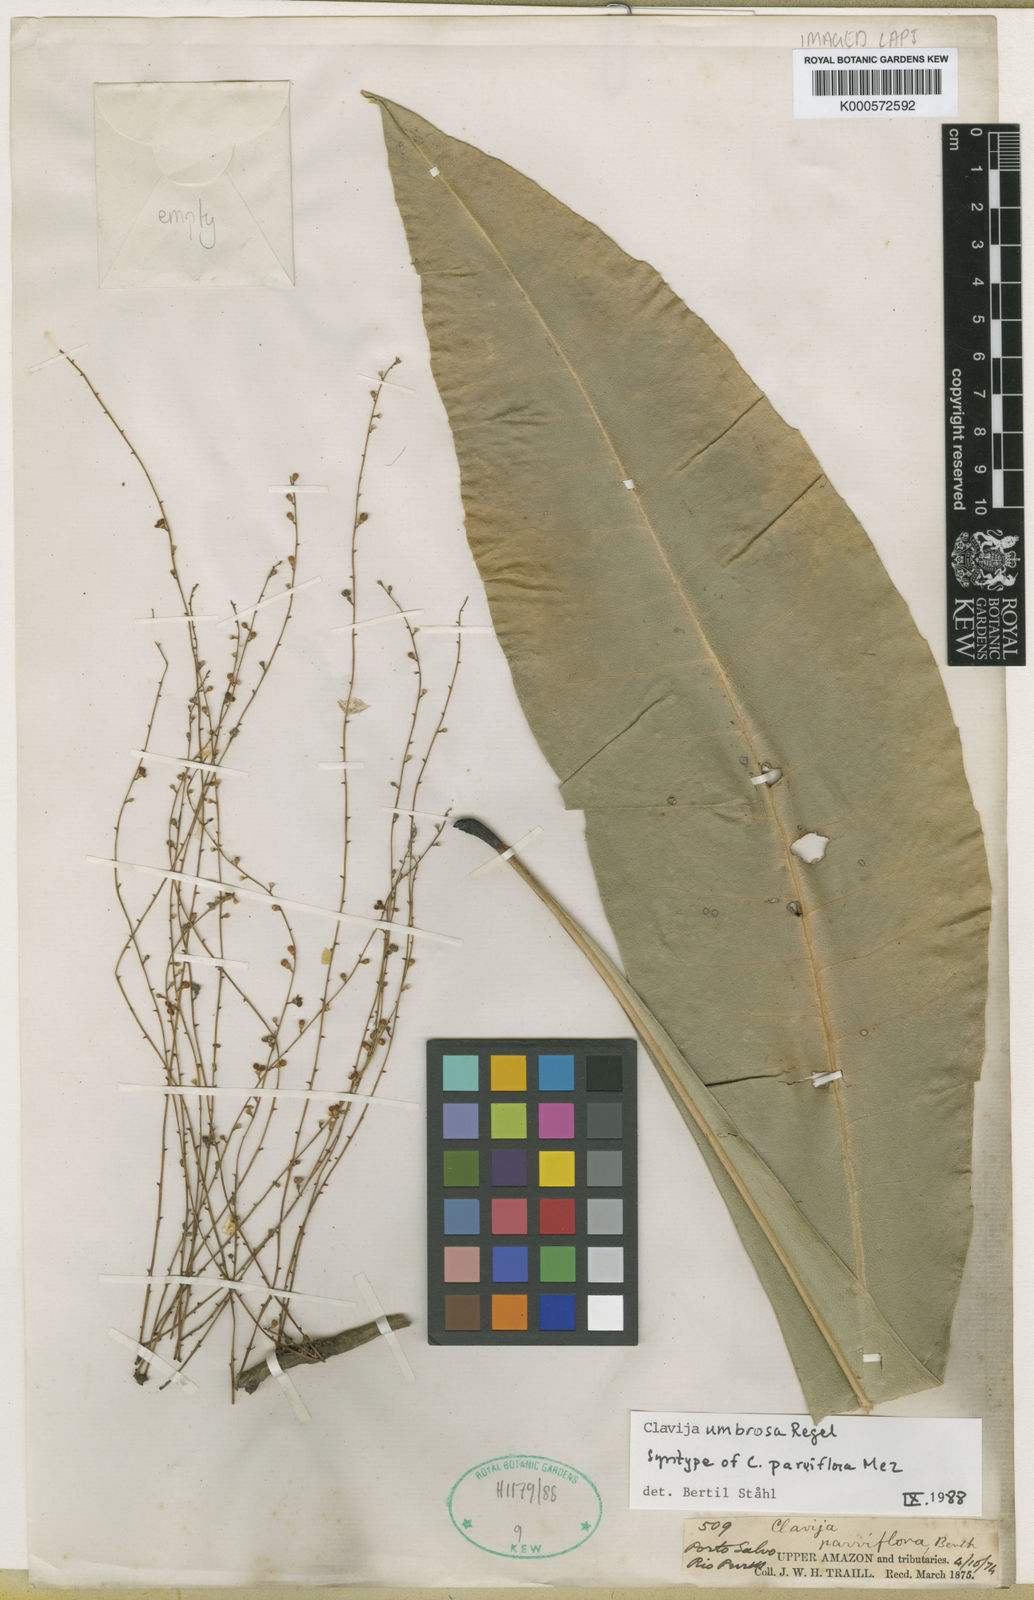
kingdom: Plantae
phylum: Tracheophyta
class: Magnoliopsida
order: Ericales
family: Primulaceae
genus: Clavija
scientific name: Clavija umbrosa
